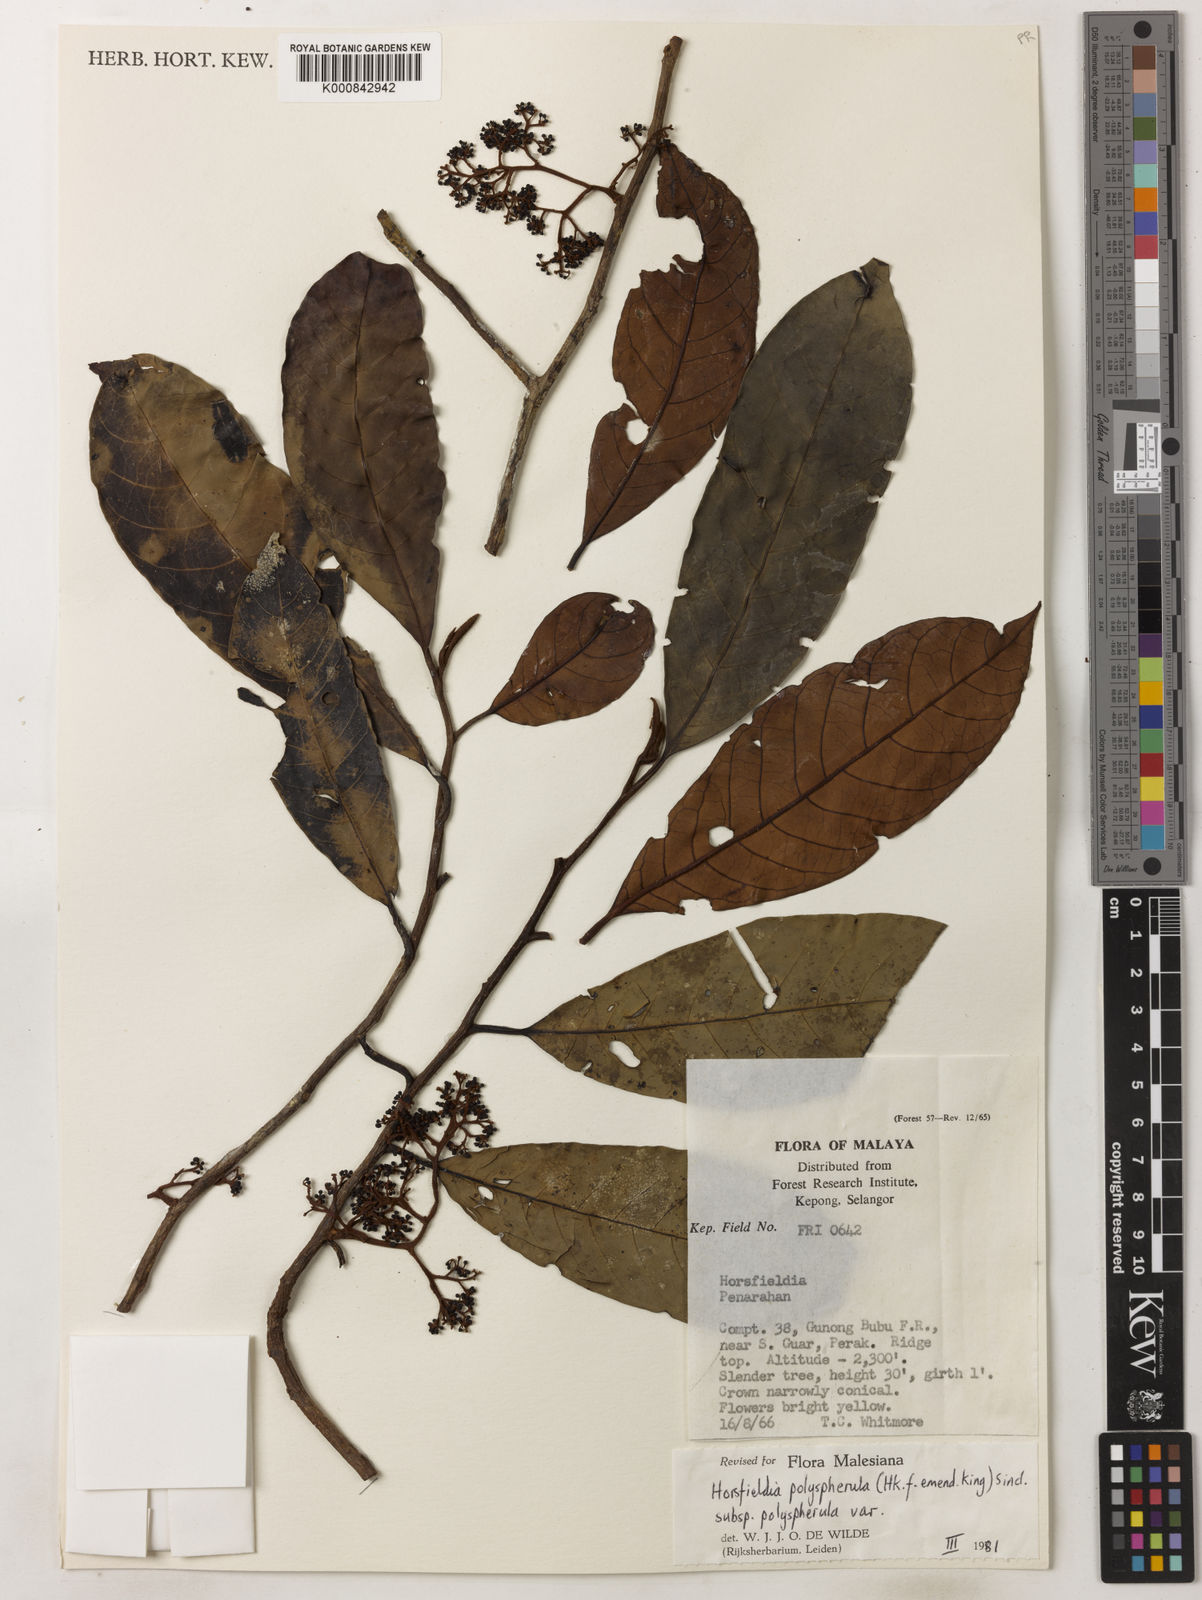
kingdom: Plantae
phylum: Tracheophyta
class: Magnoliopsida
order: Magnoliales
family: Myristicaceae
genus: Horsfieldia
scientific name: Horsfieldia
